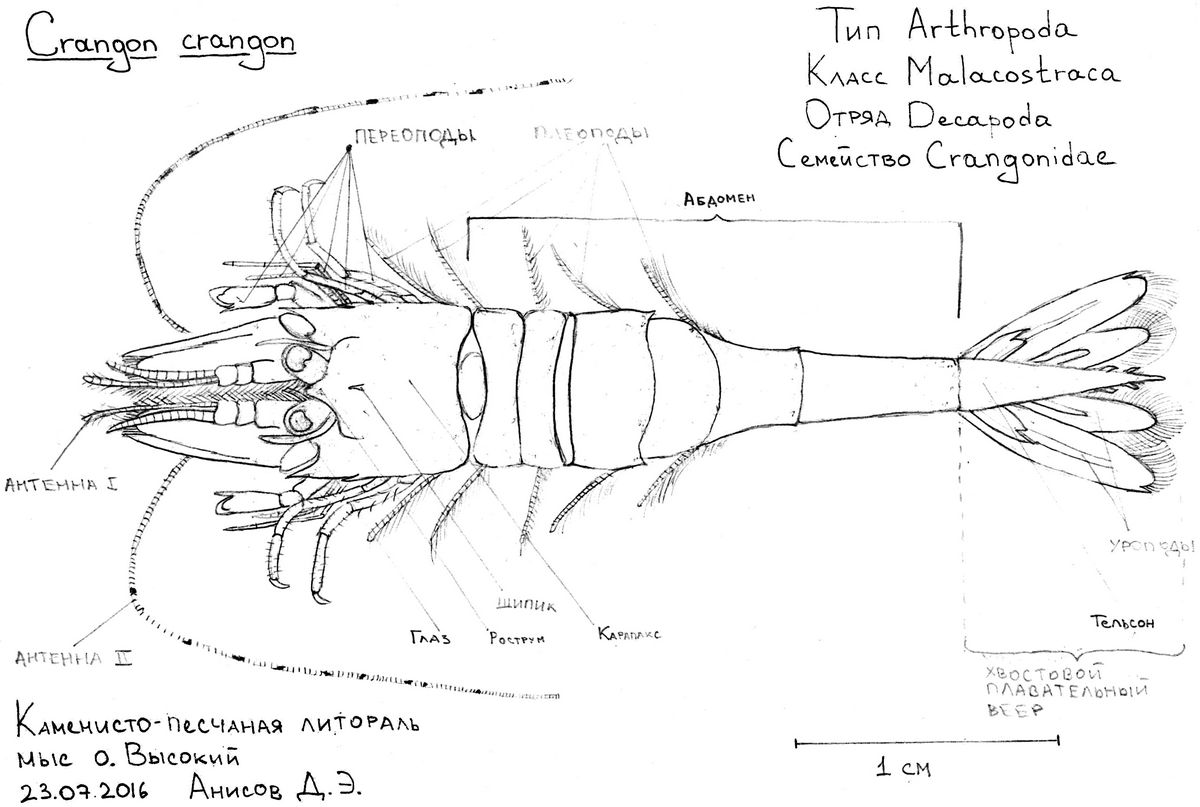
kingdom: Animalia
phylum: Arthropoda
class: Malacostraca
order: Decapoda
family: Crangonidae
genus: Crangon
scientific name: Crangon crangon
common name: Brown shrimp
